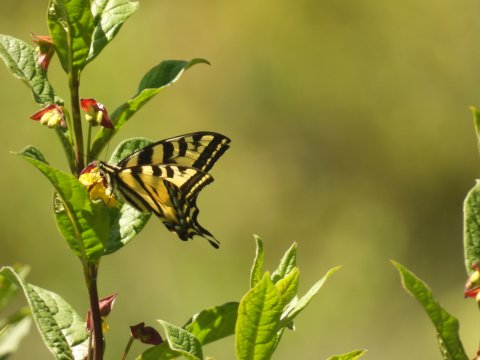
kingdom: Animalia
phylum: Arthropoda
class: Insecta
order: Lepidoptera
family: Papilionidae
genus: Pterourus
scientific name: Pterourus rutulus
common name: Western Tiger Swallowtail
